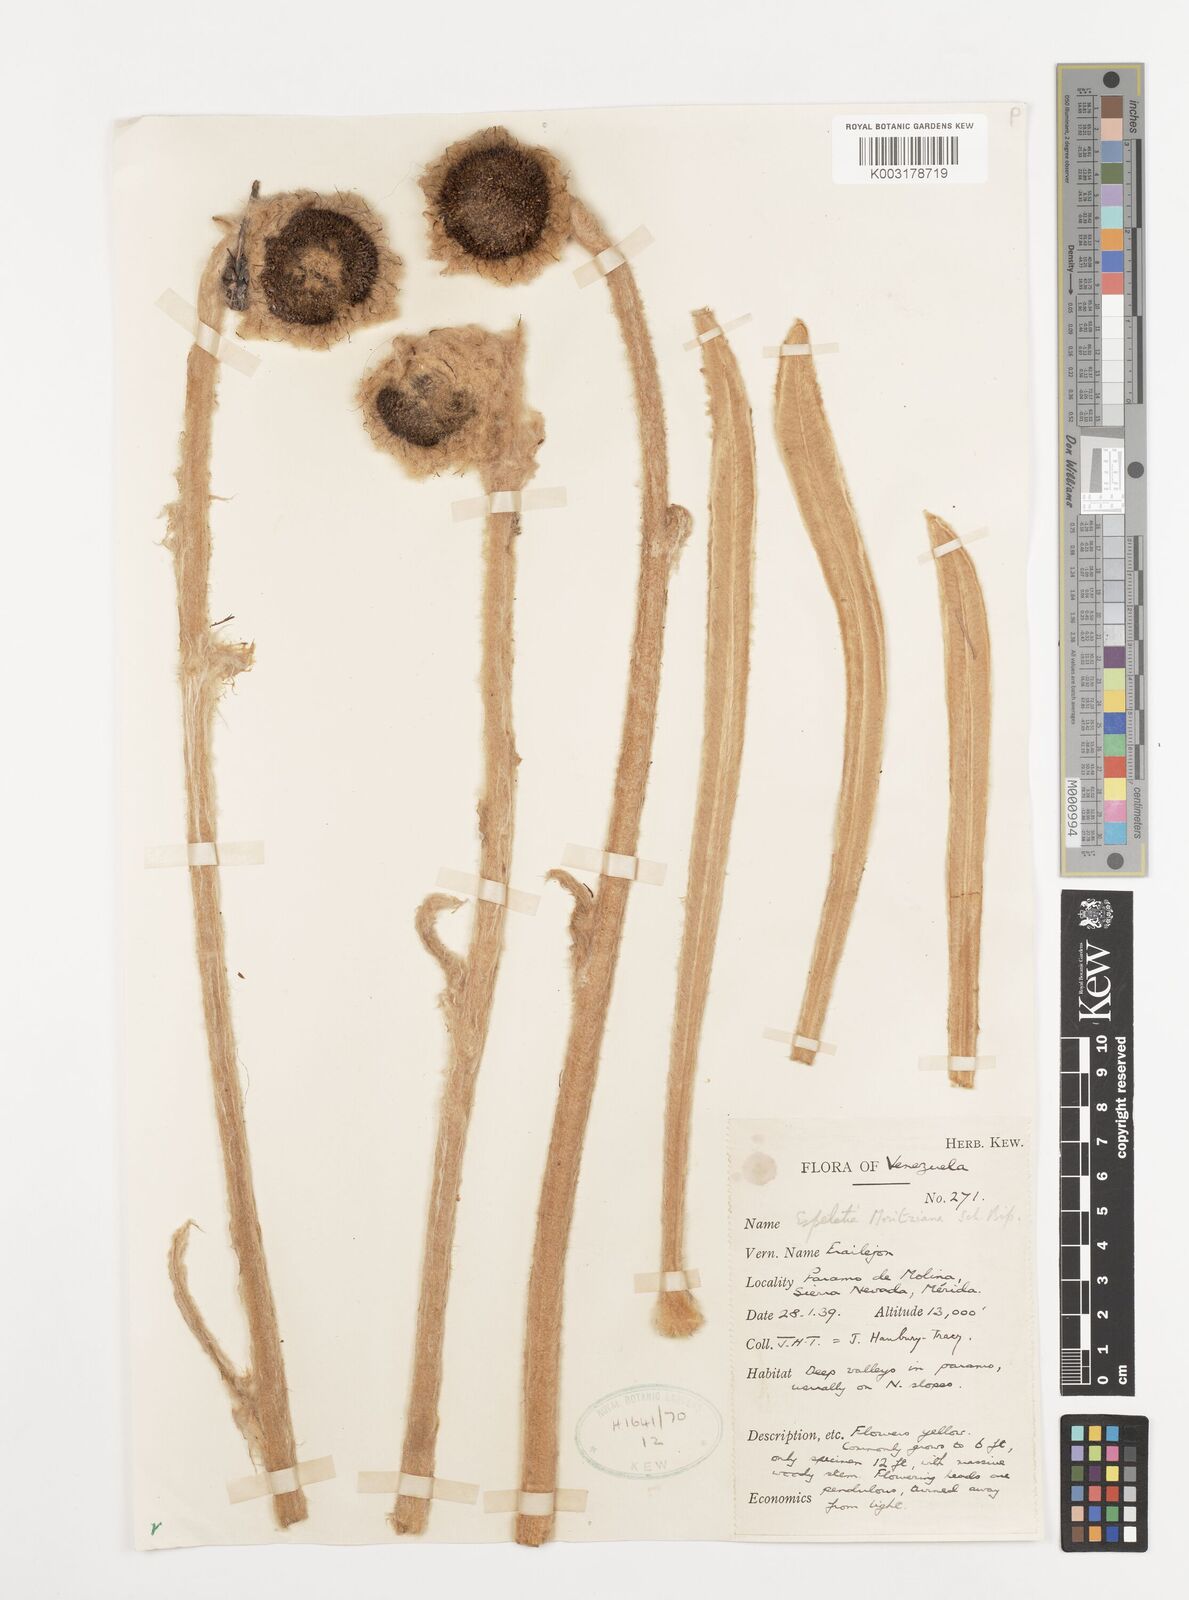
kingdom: Plantae
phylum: Tracheophyta
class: Magnoliopsida
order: Asterales
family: Asteraceae
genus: Espeletia
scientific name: Espeletia moritziana
